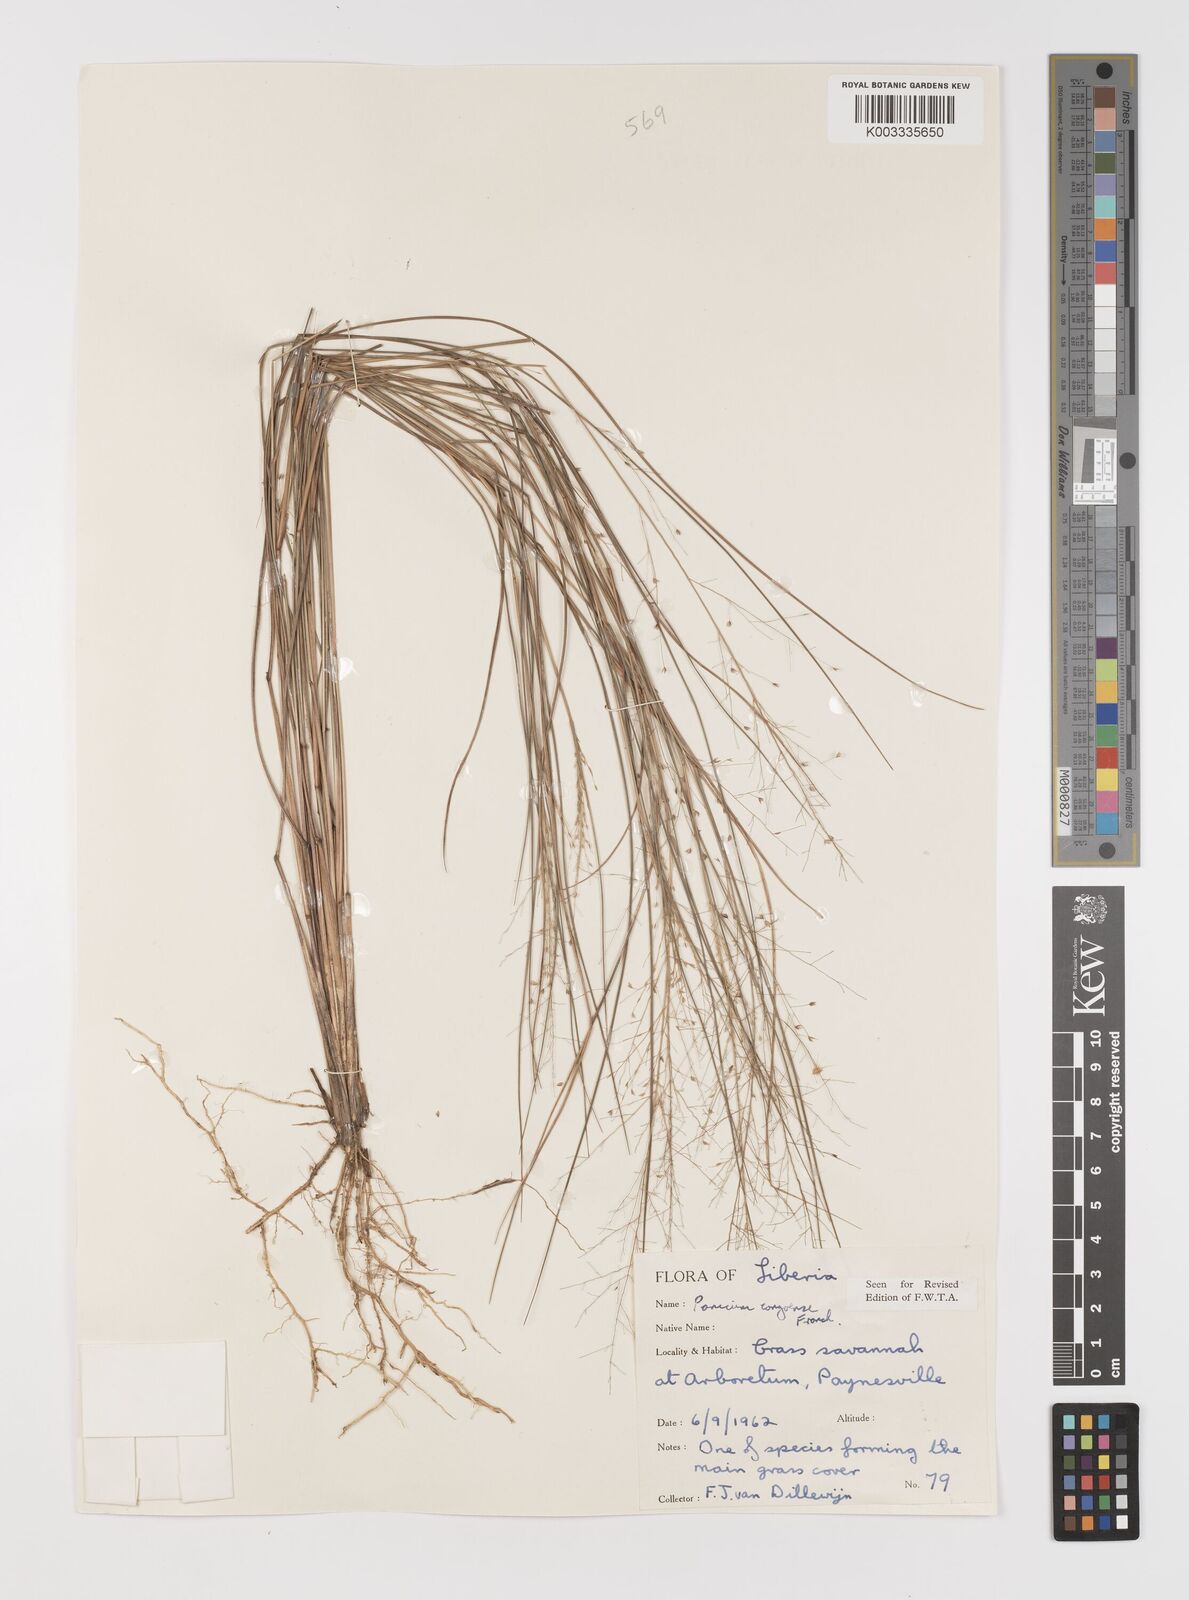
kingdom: Plantae
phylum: Tracheophyta
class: Liliopsida
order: Poales
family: Poaceae
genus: Panicum
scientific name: Panicum congoense
